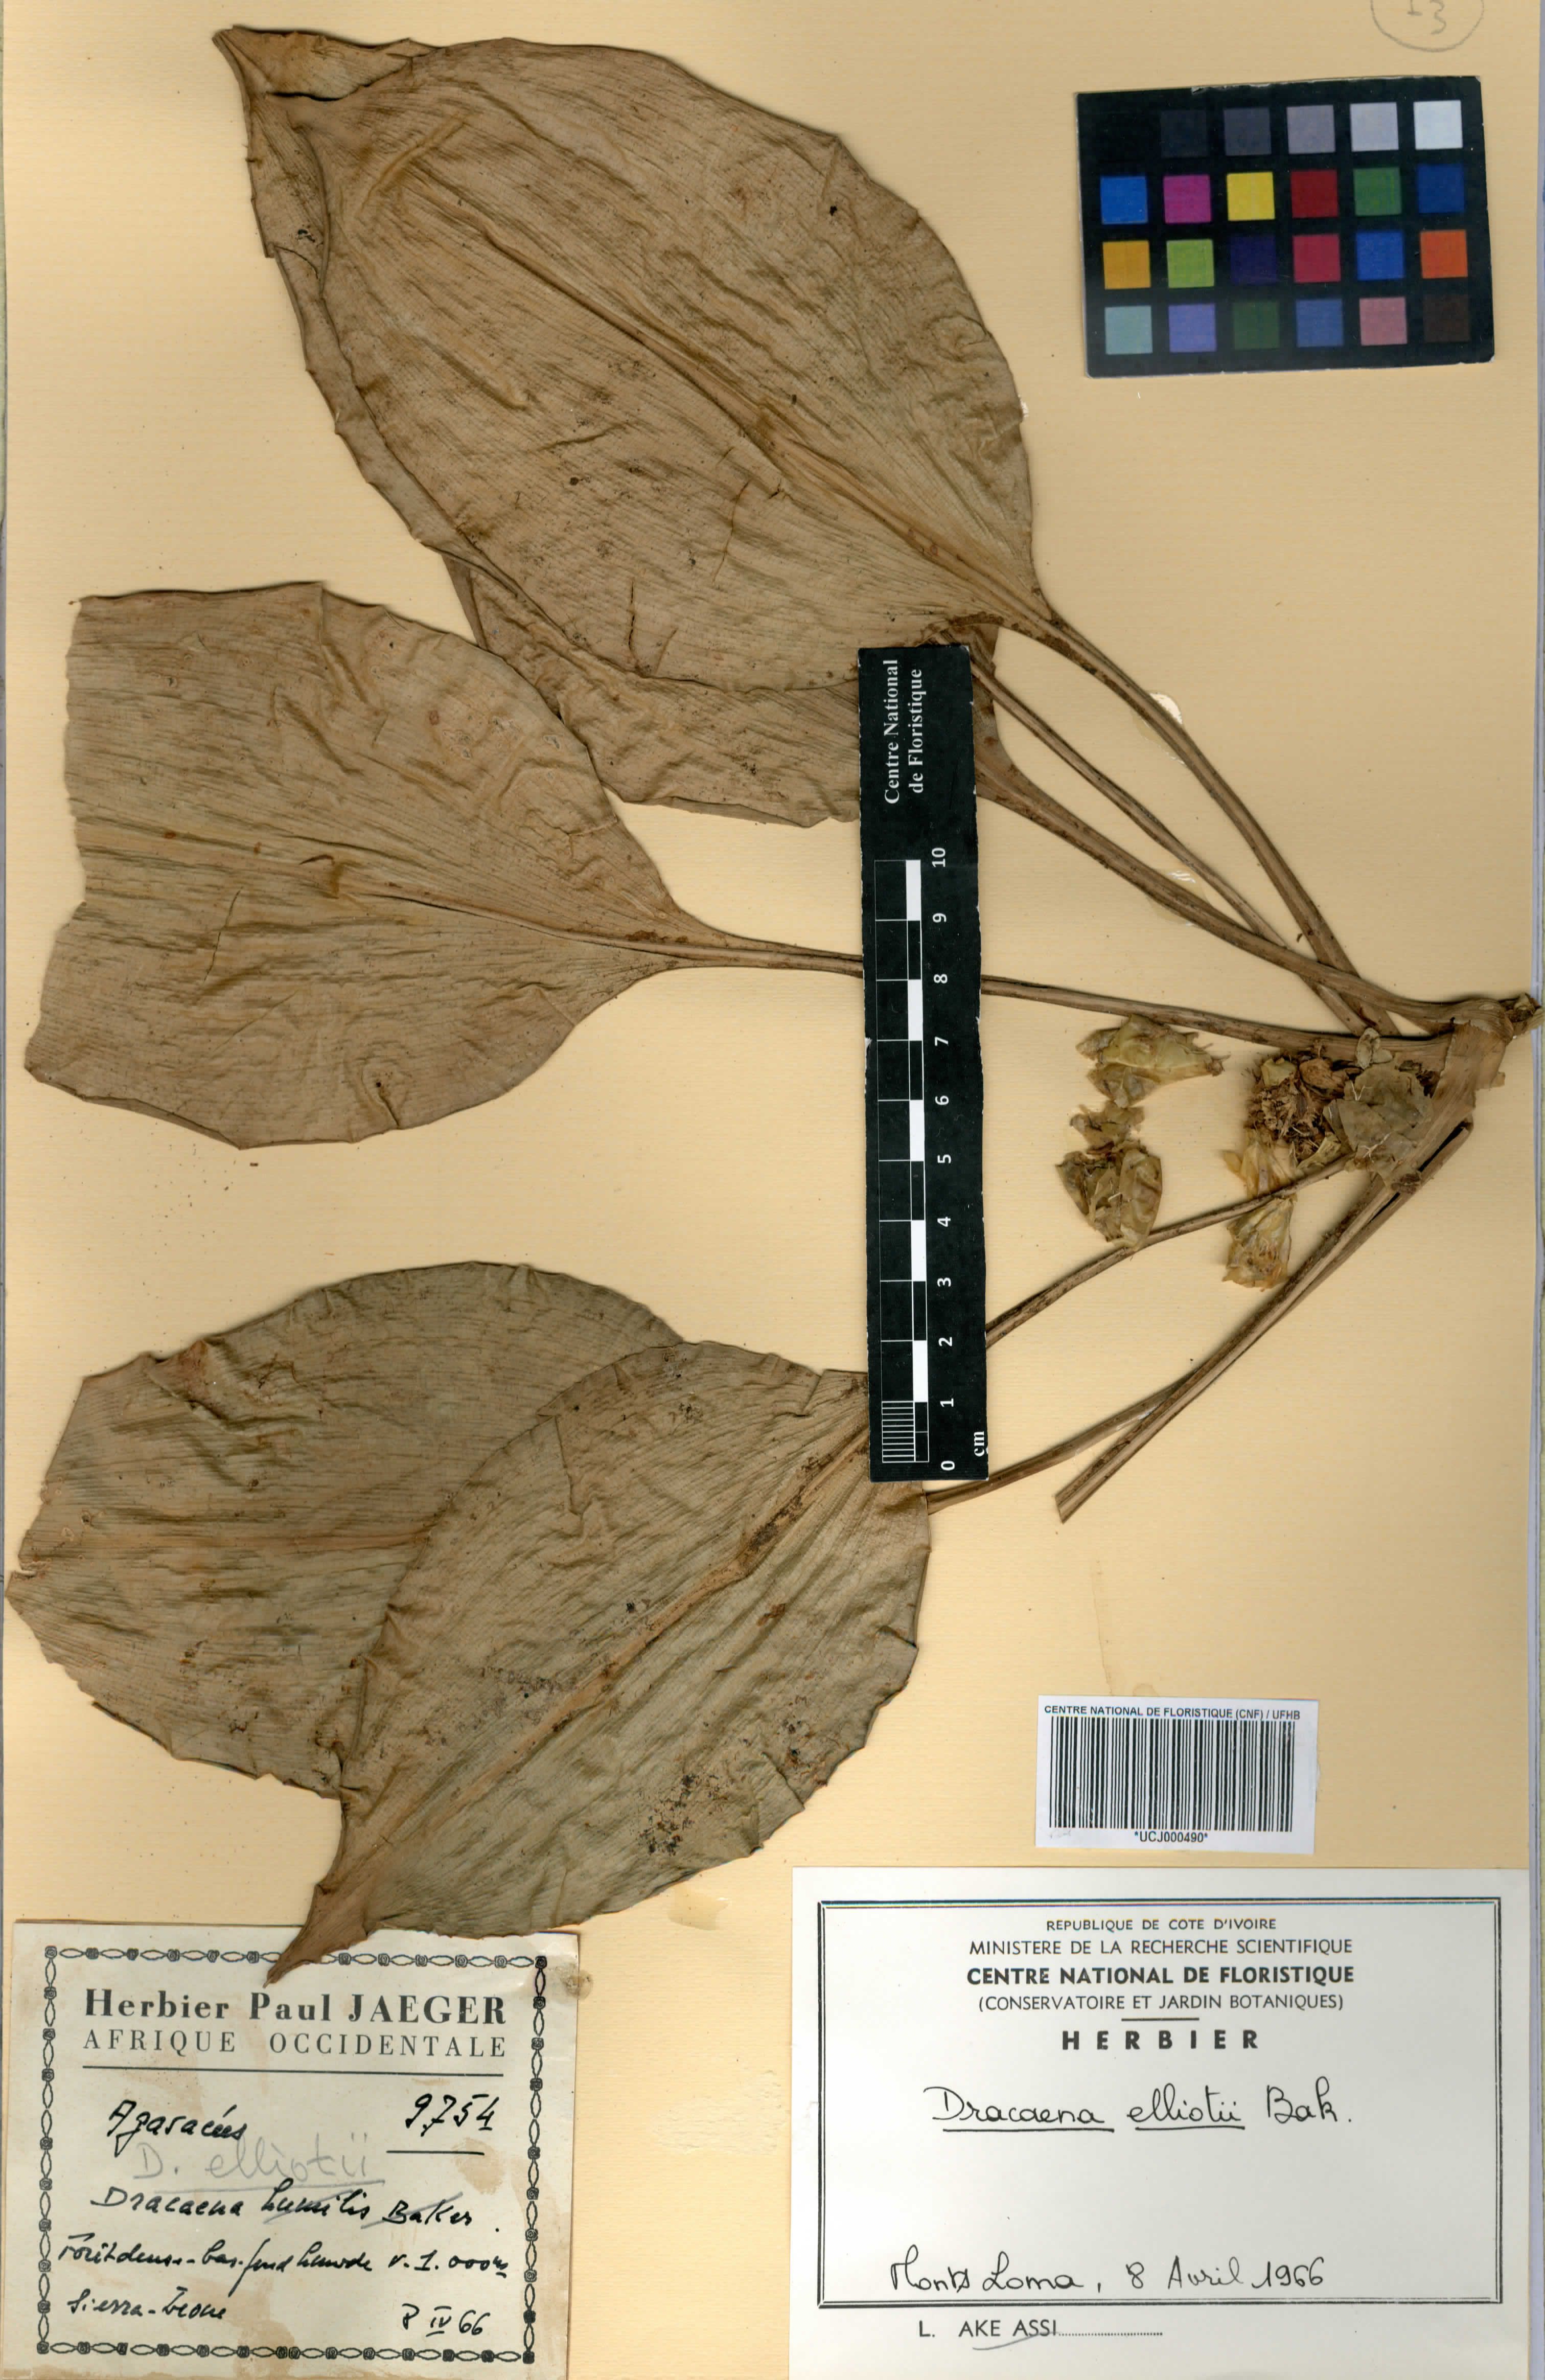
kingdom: Plantae
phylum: Tracheophyta
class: Liliopsida
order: Asparagales
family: Asparagaceae
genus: Dracaena
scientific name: Dracaena cristula
